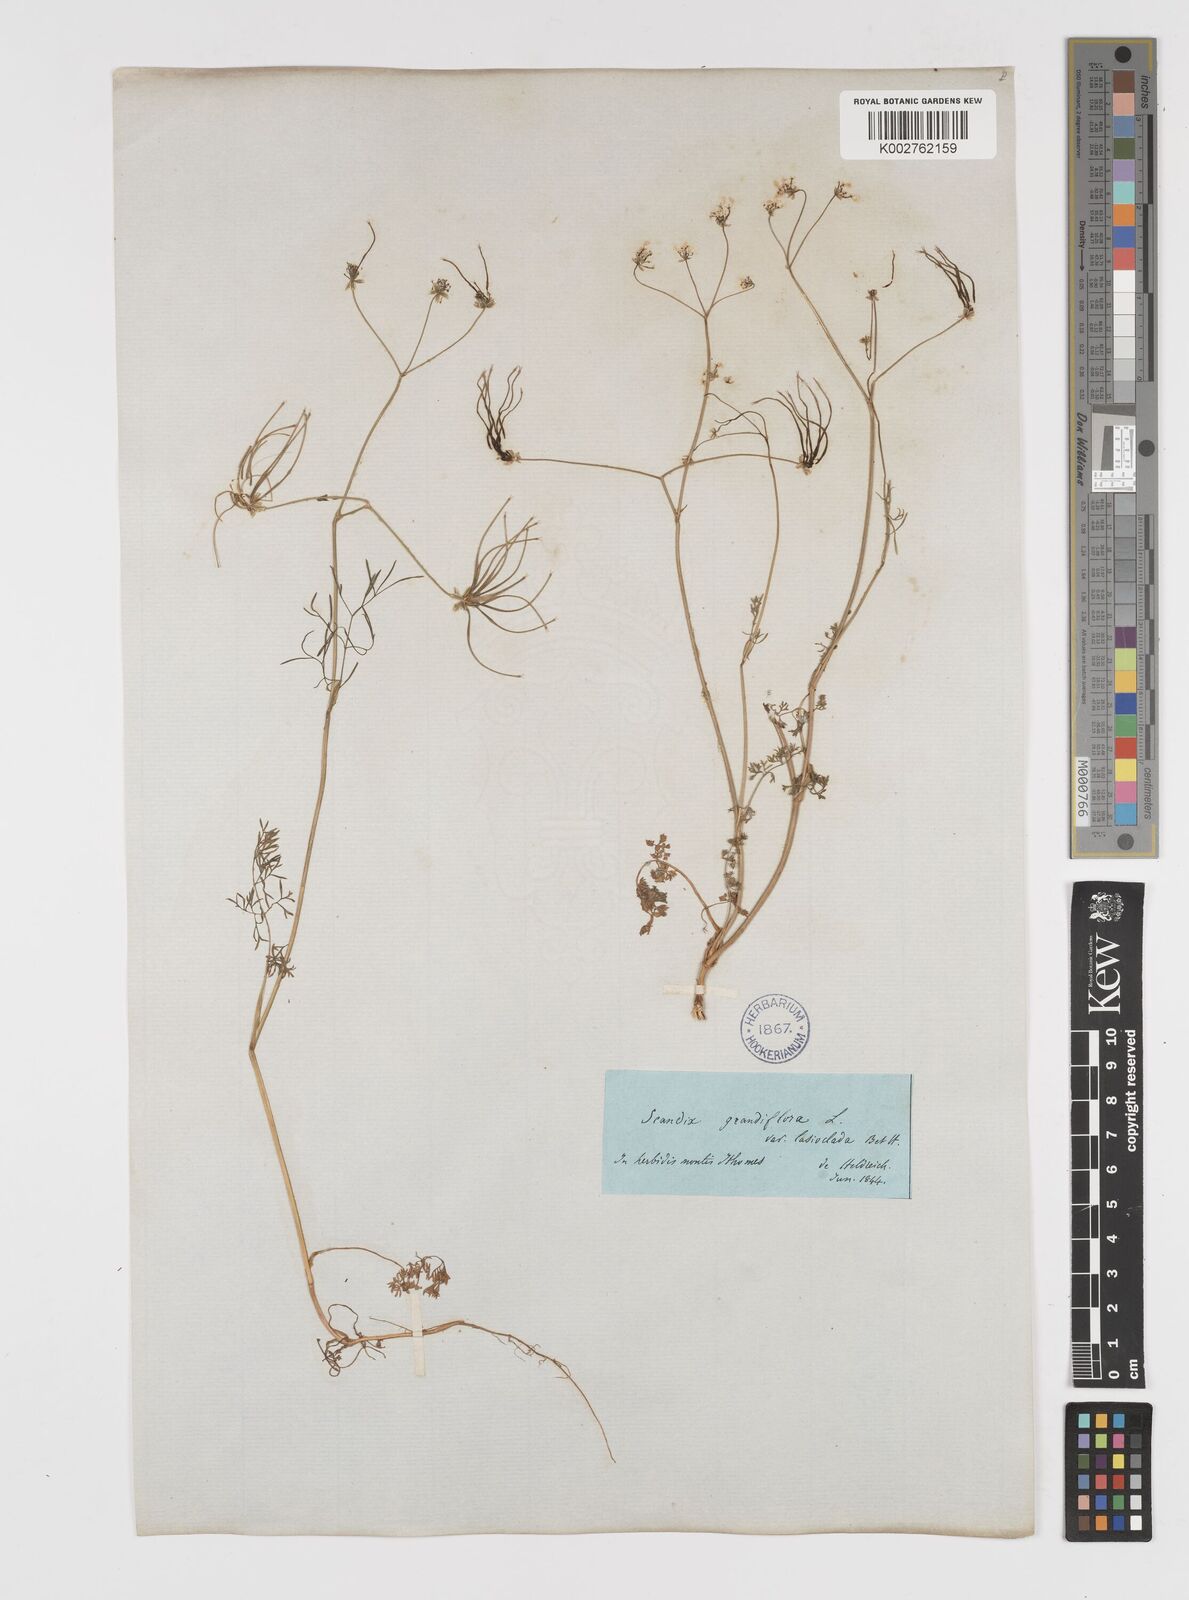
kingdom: Plantae
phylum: Tracheophyta
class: Magnoliopsida
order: Apiales
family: Apiaceae
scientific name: Apiaceae
